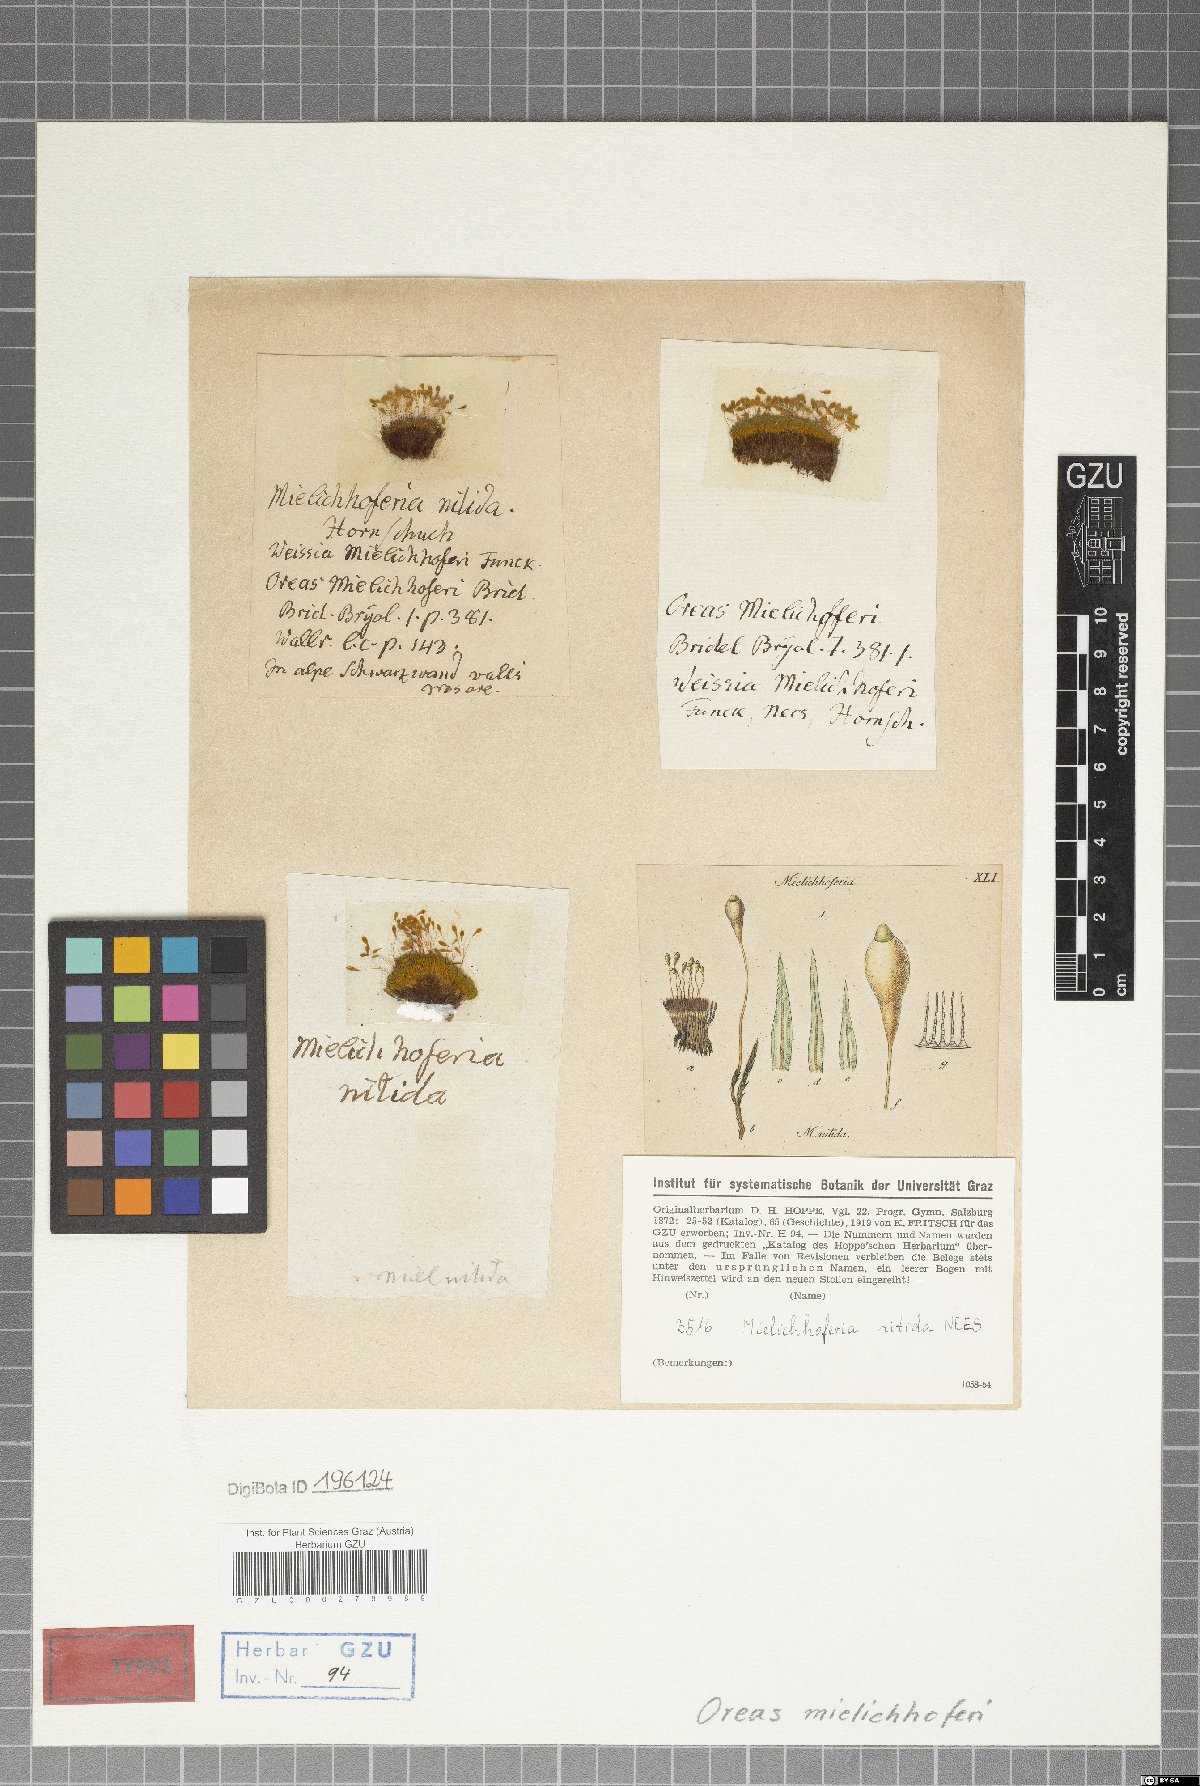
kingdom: Plantae
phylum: Bryophyta
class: Bryopsida
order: Bryales
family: Mniaceae
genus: Mielichhoferia
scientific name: Mielichhoferia mielichhoferiana
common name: Alpine copper-moss
